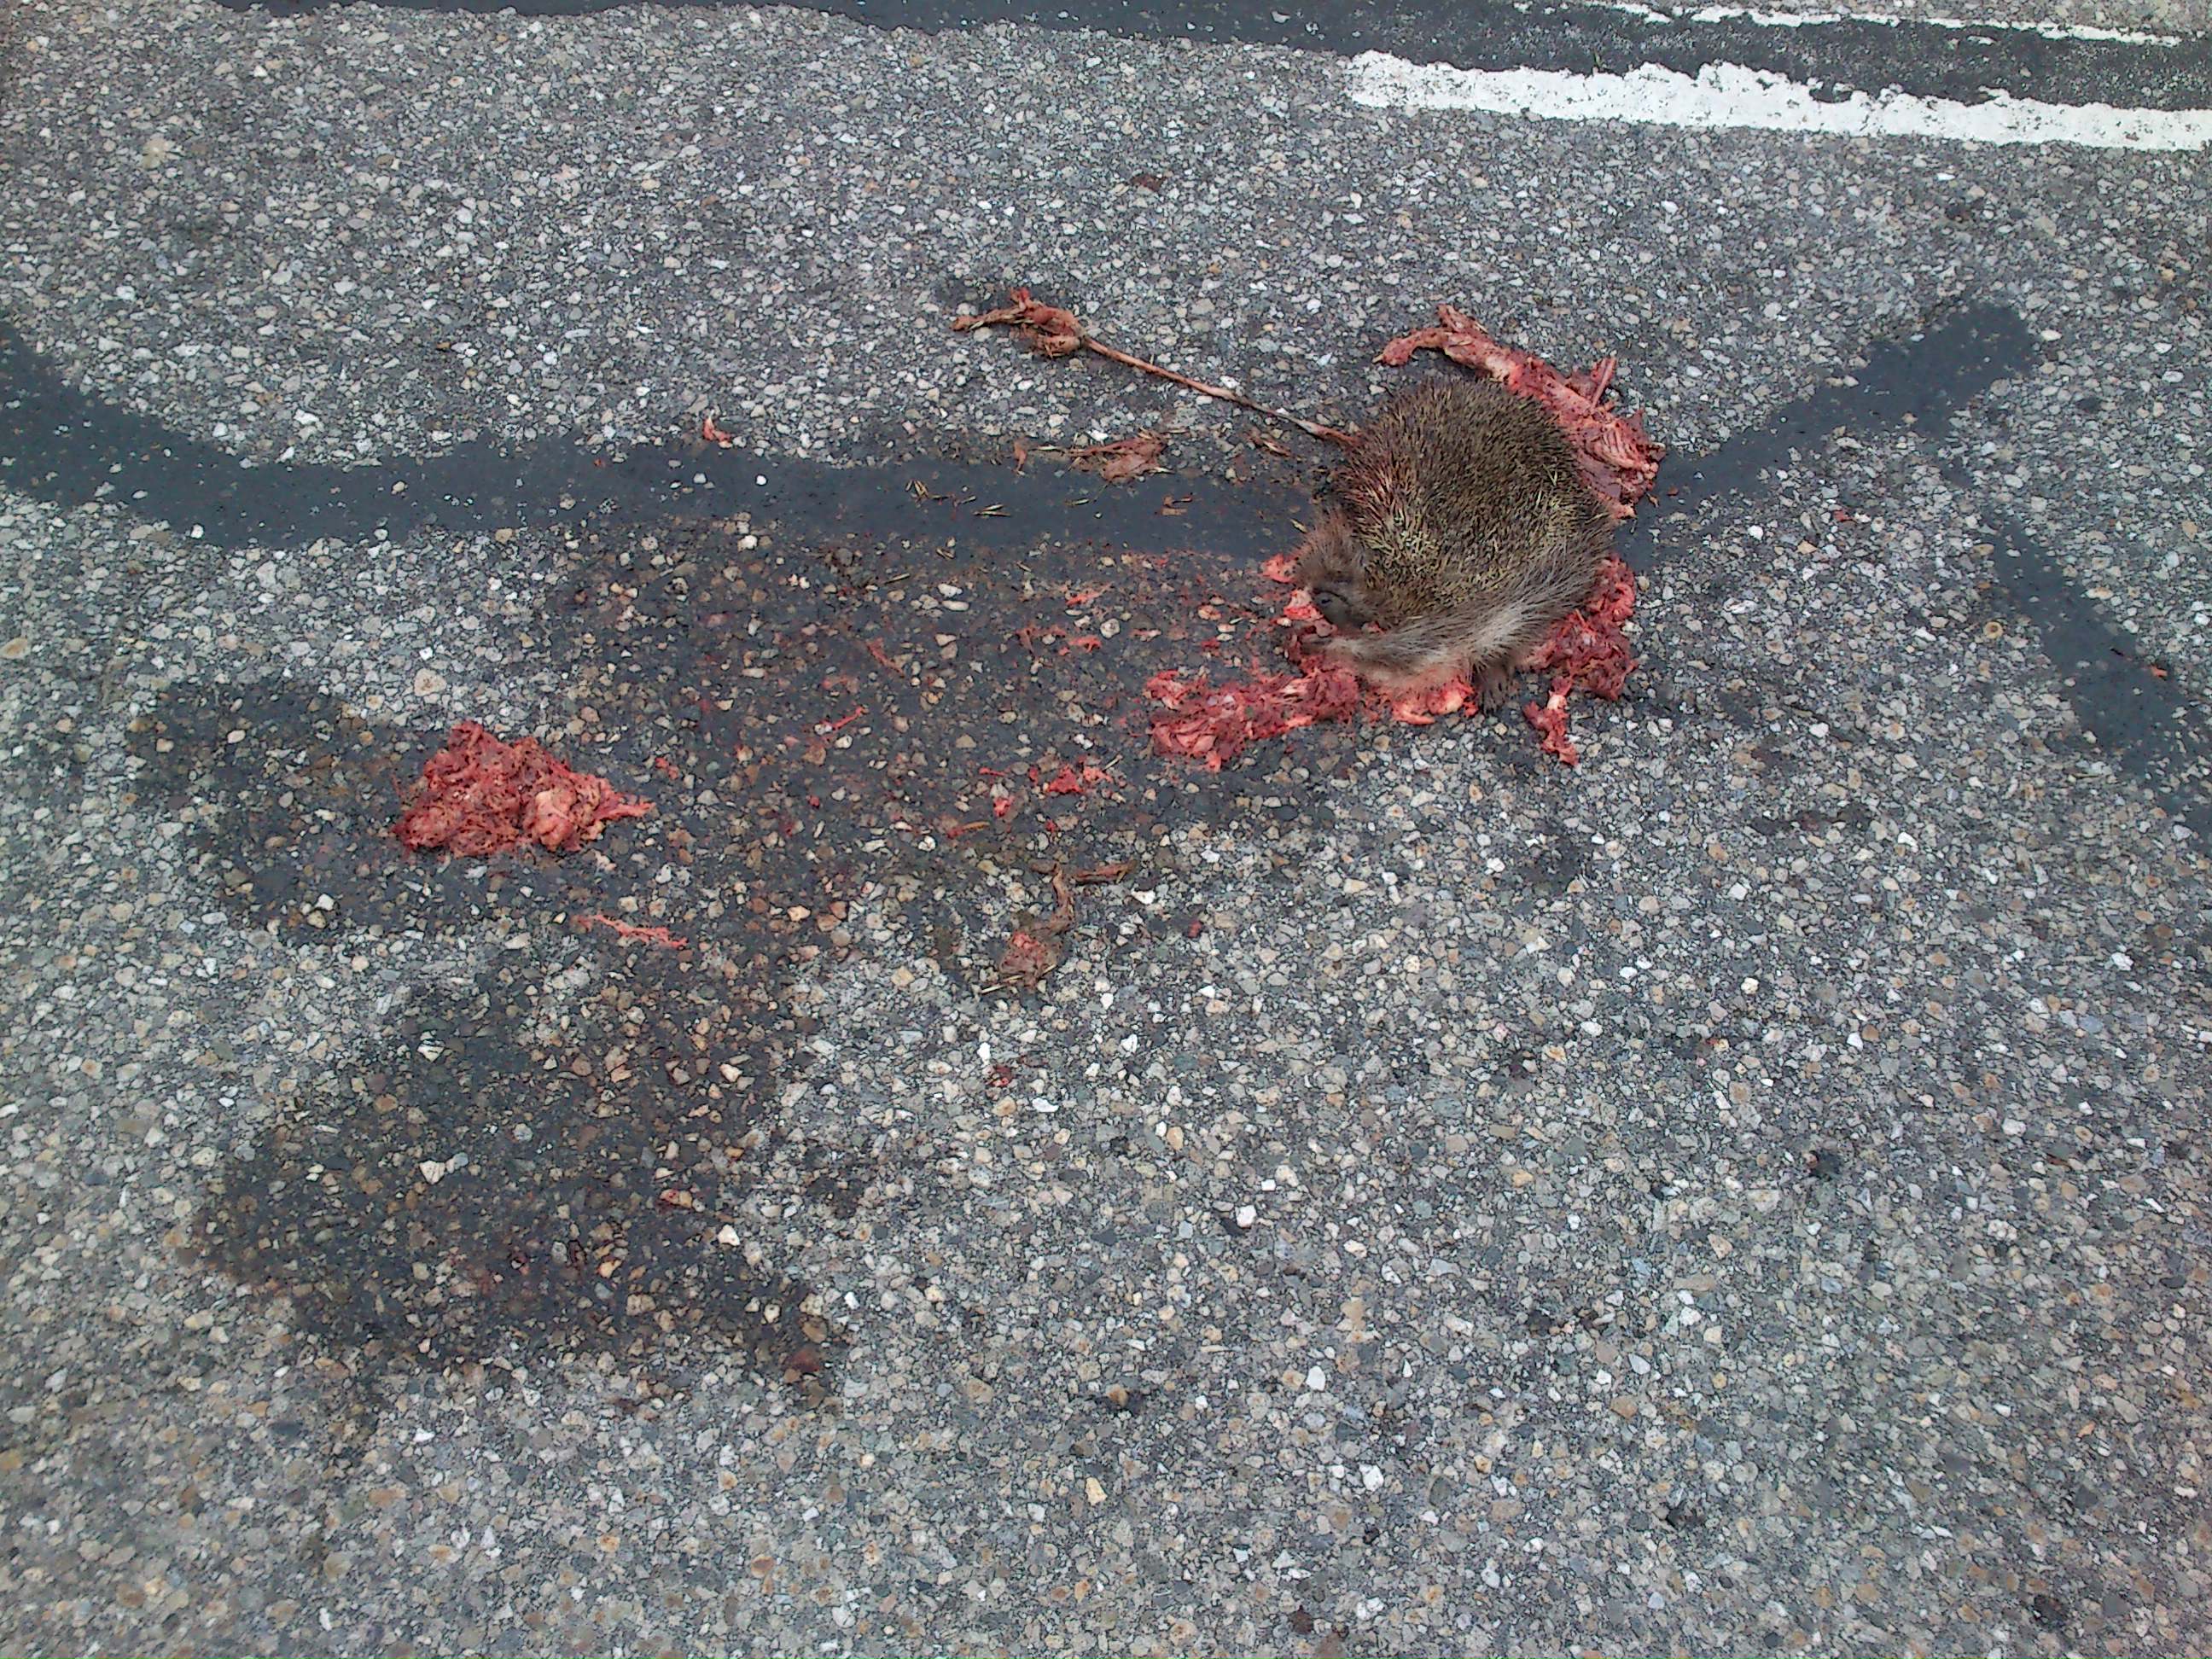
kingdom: Animalia
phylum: Chordata
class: Mammalia
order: Erinaceomorpha
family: Erinaceidae
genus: Erinaceus
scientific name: Erinaceus
